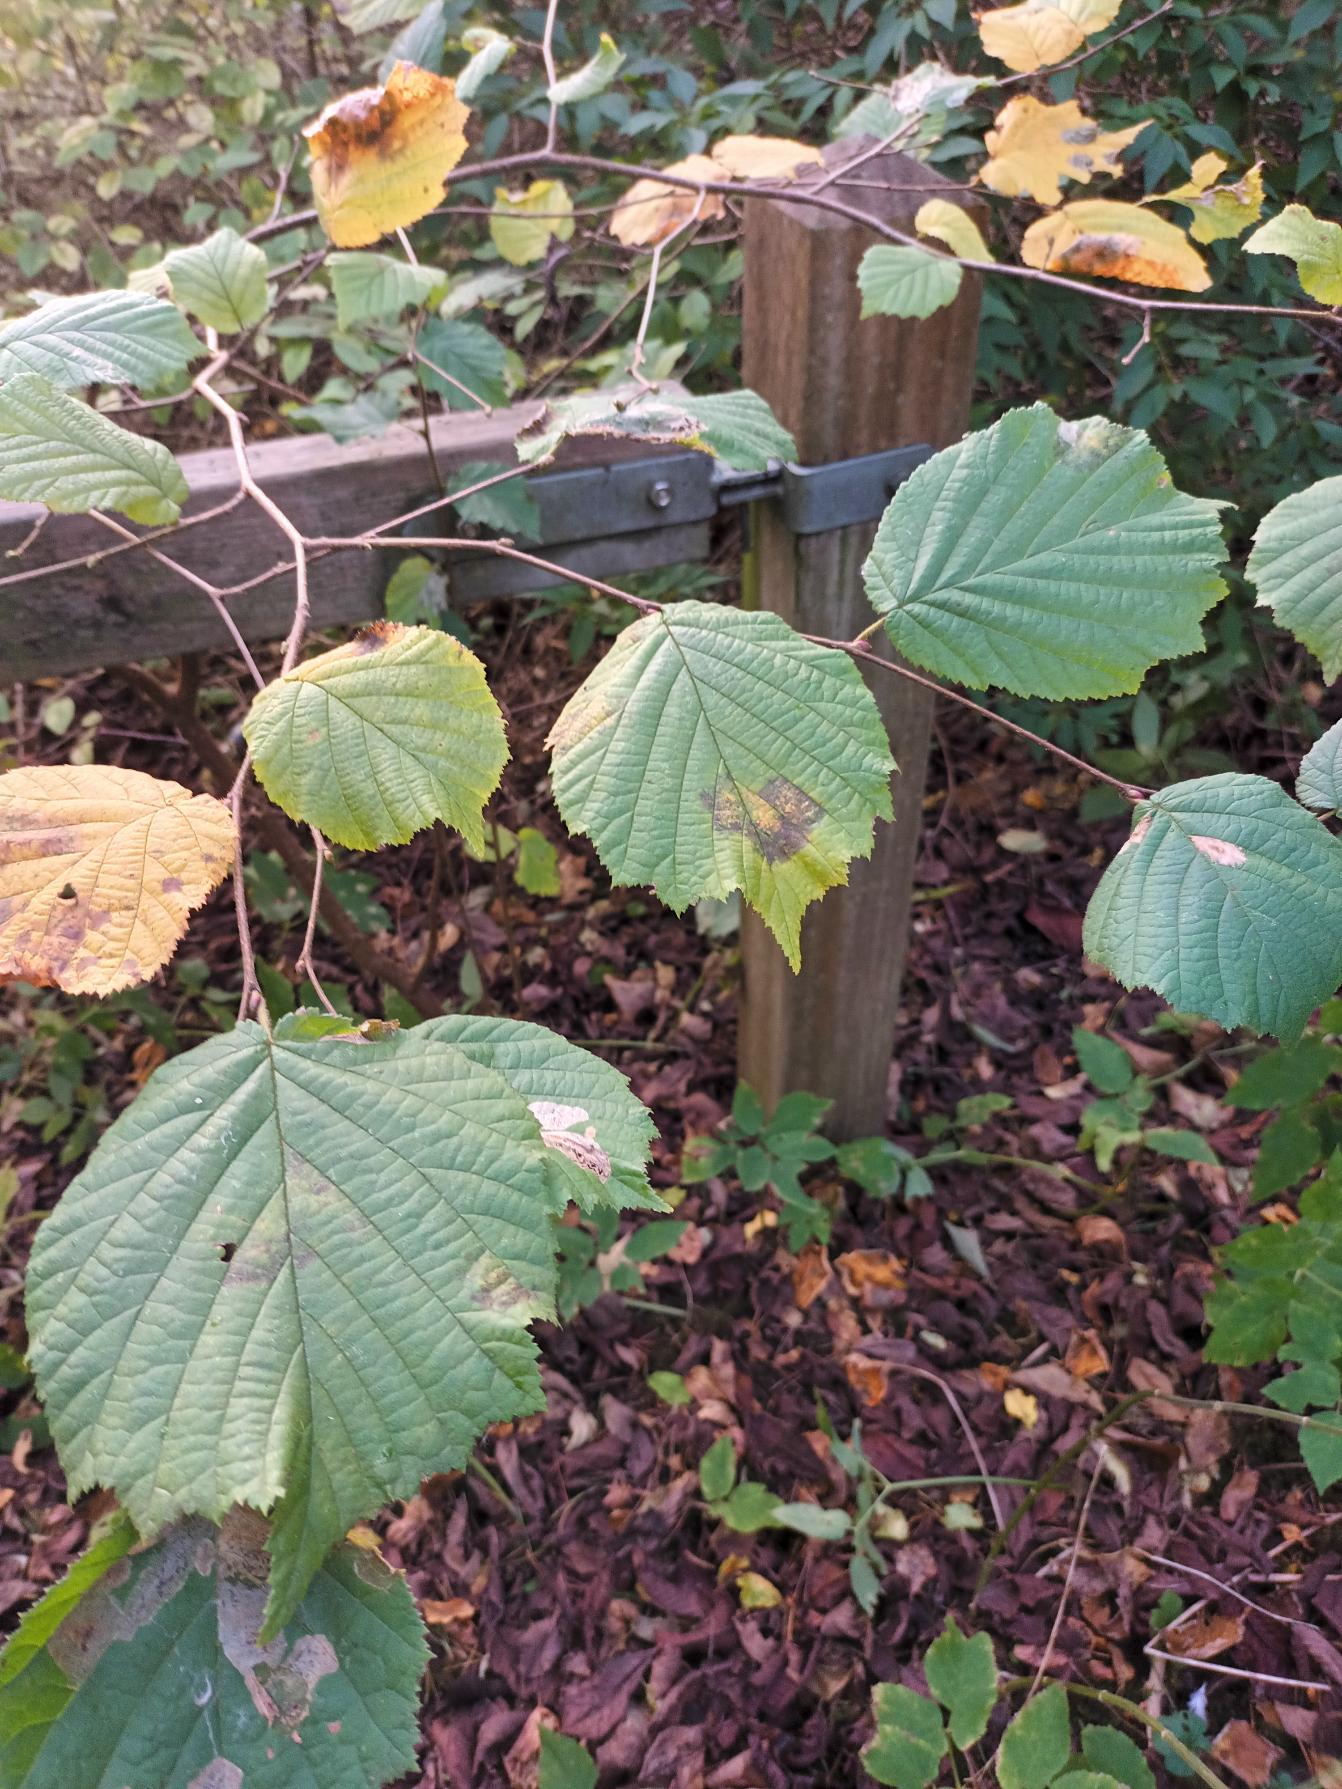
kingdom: Plantae
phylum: Tracheophyta
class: Magnoliopsida
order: Fagales
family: Betulaceae
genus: Corylus
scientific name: Corylus avellana
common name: Hassel
